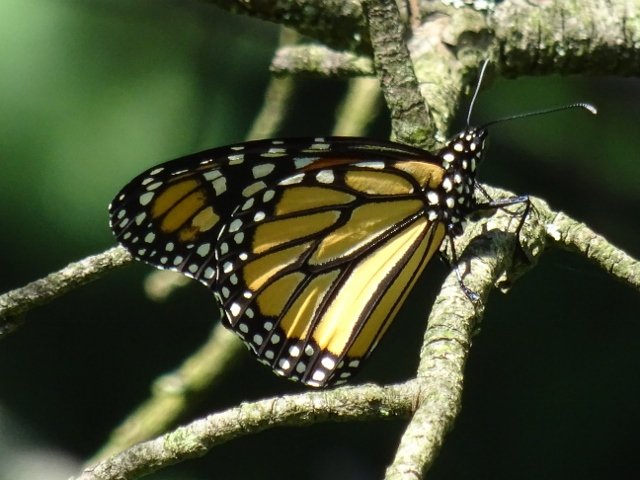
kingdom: Animalia
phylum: Arthropoda
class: Insecta
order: Lepidoptera
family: Nymphalidae
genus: Danaus
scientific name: Danaus plexippus
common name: Monarch
